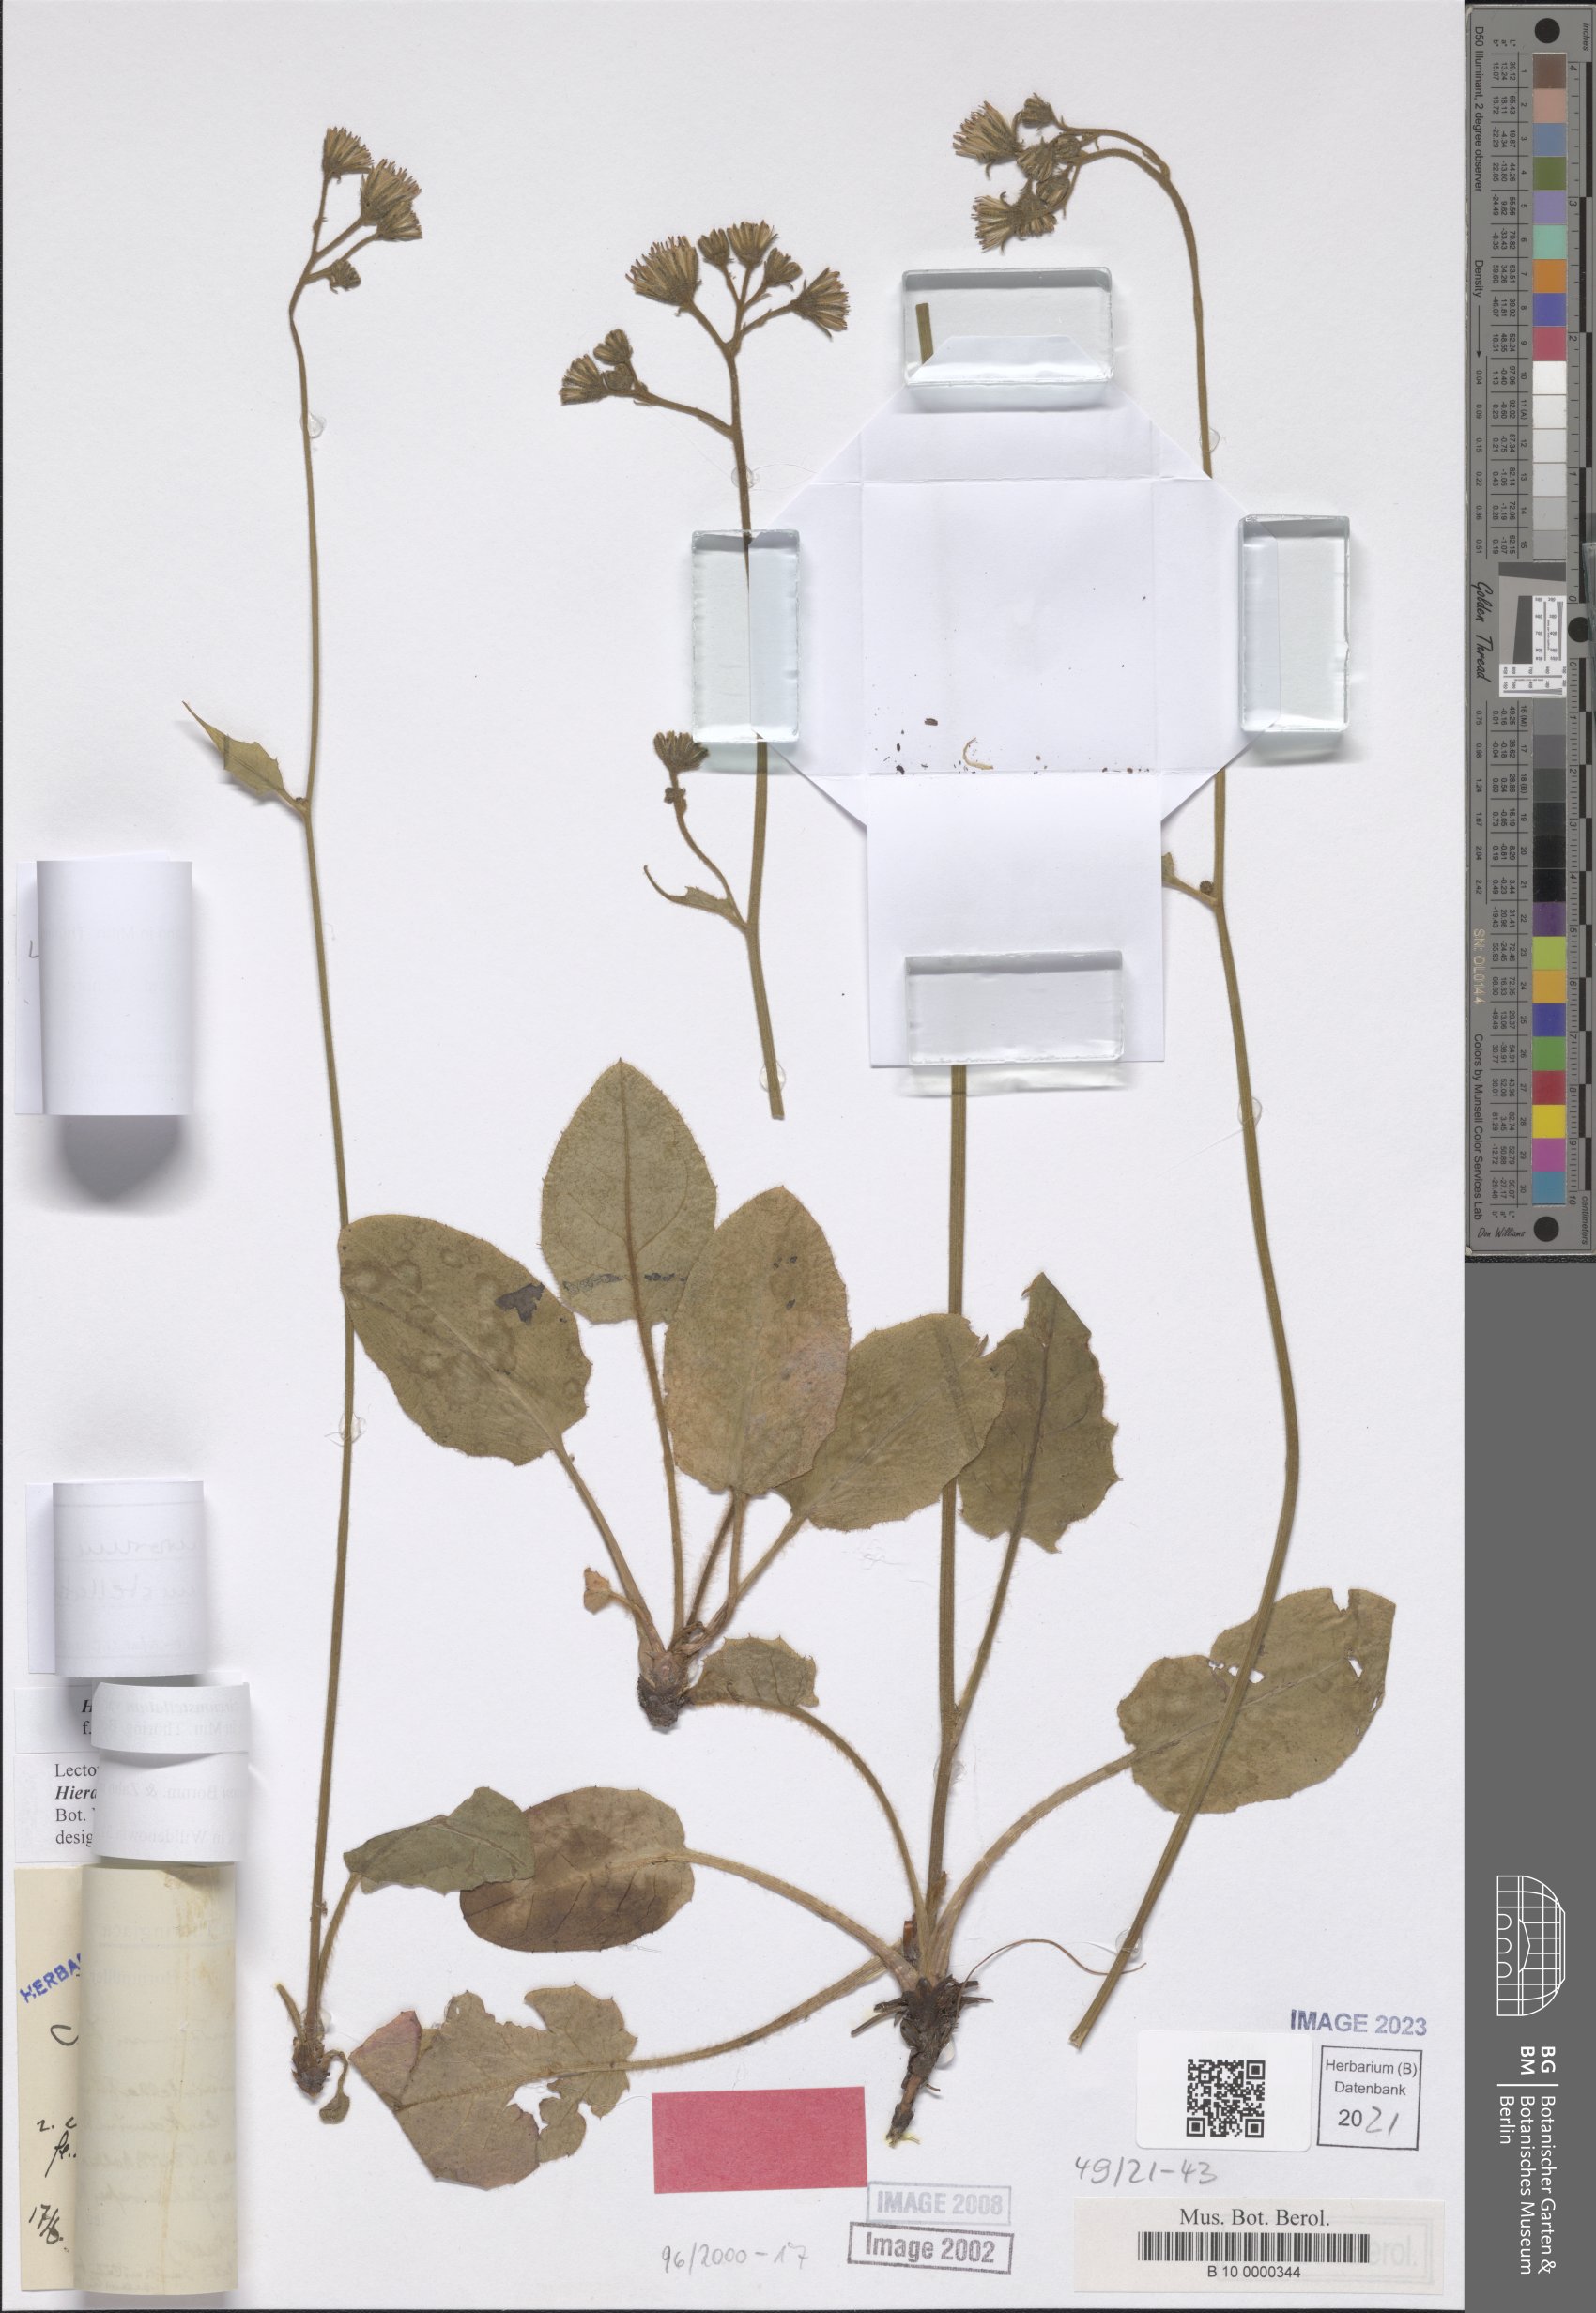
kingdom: Plantae
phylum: Tracheophyta
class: Magnoliopsida
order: Asterales
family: Asteraceae
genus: Hieracium
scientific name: Hieracium murorum
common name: Wall hawkweed
